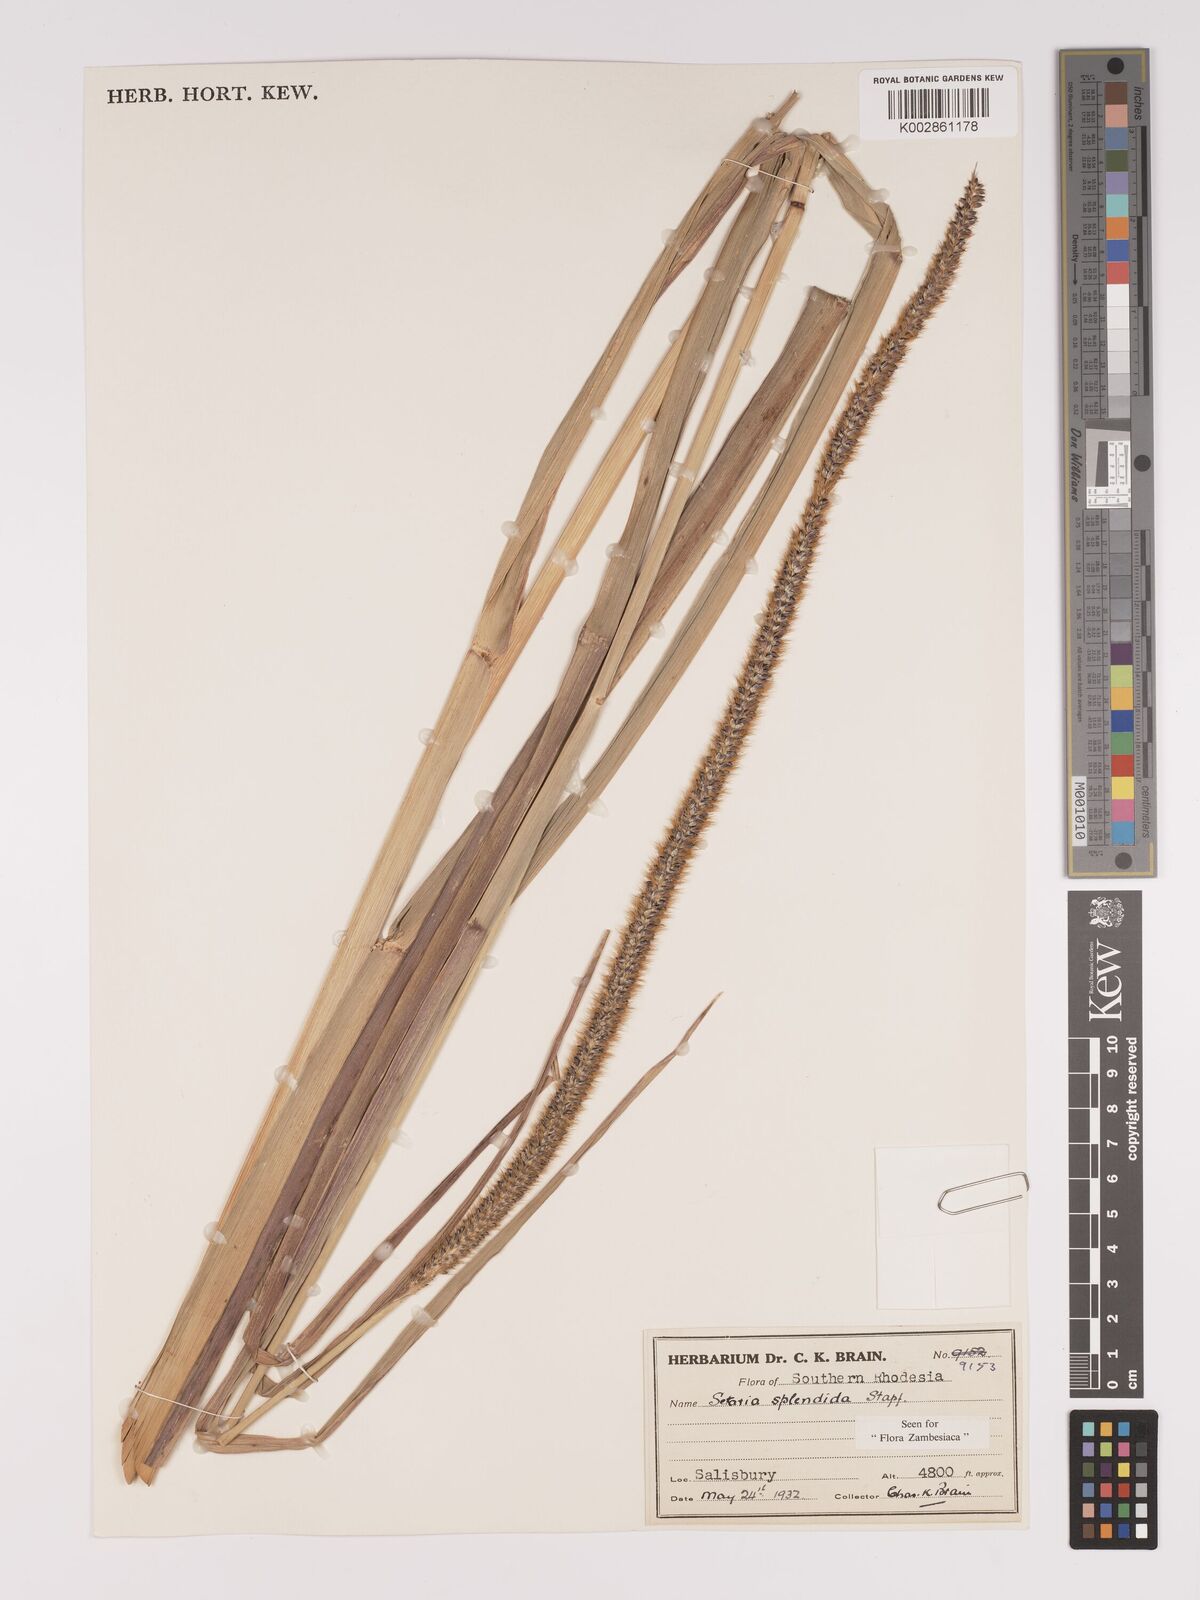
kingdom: Plantae
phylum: Tracheophyta
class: Liliopsida
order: Poales
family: Poaceae
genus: Setaria
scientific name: Setaria sphacelata
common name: African bristlegrass
